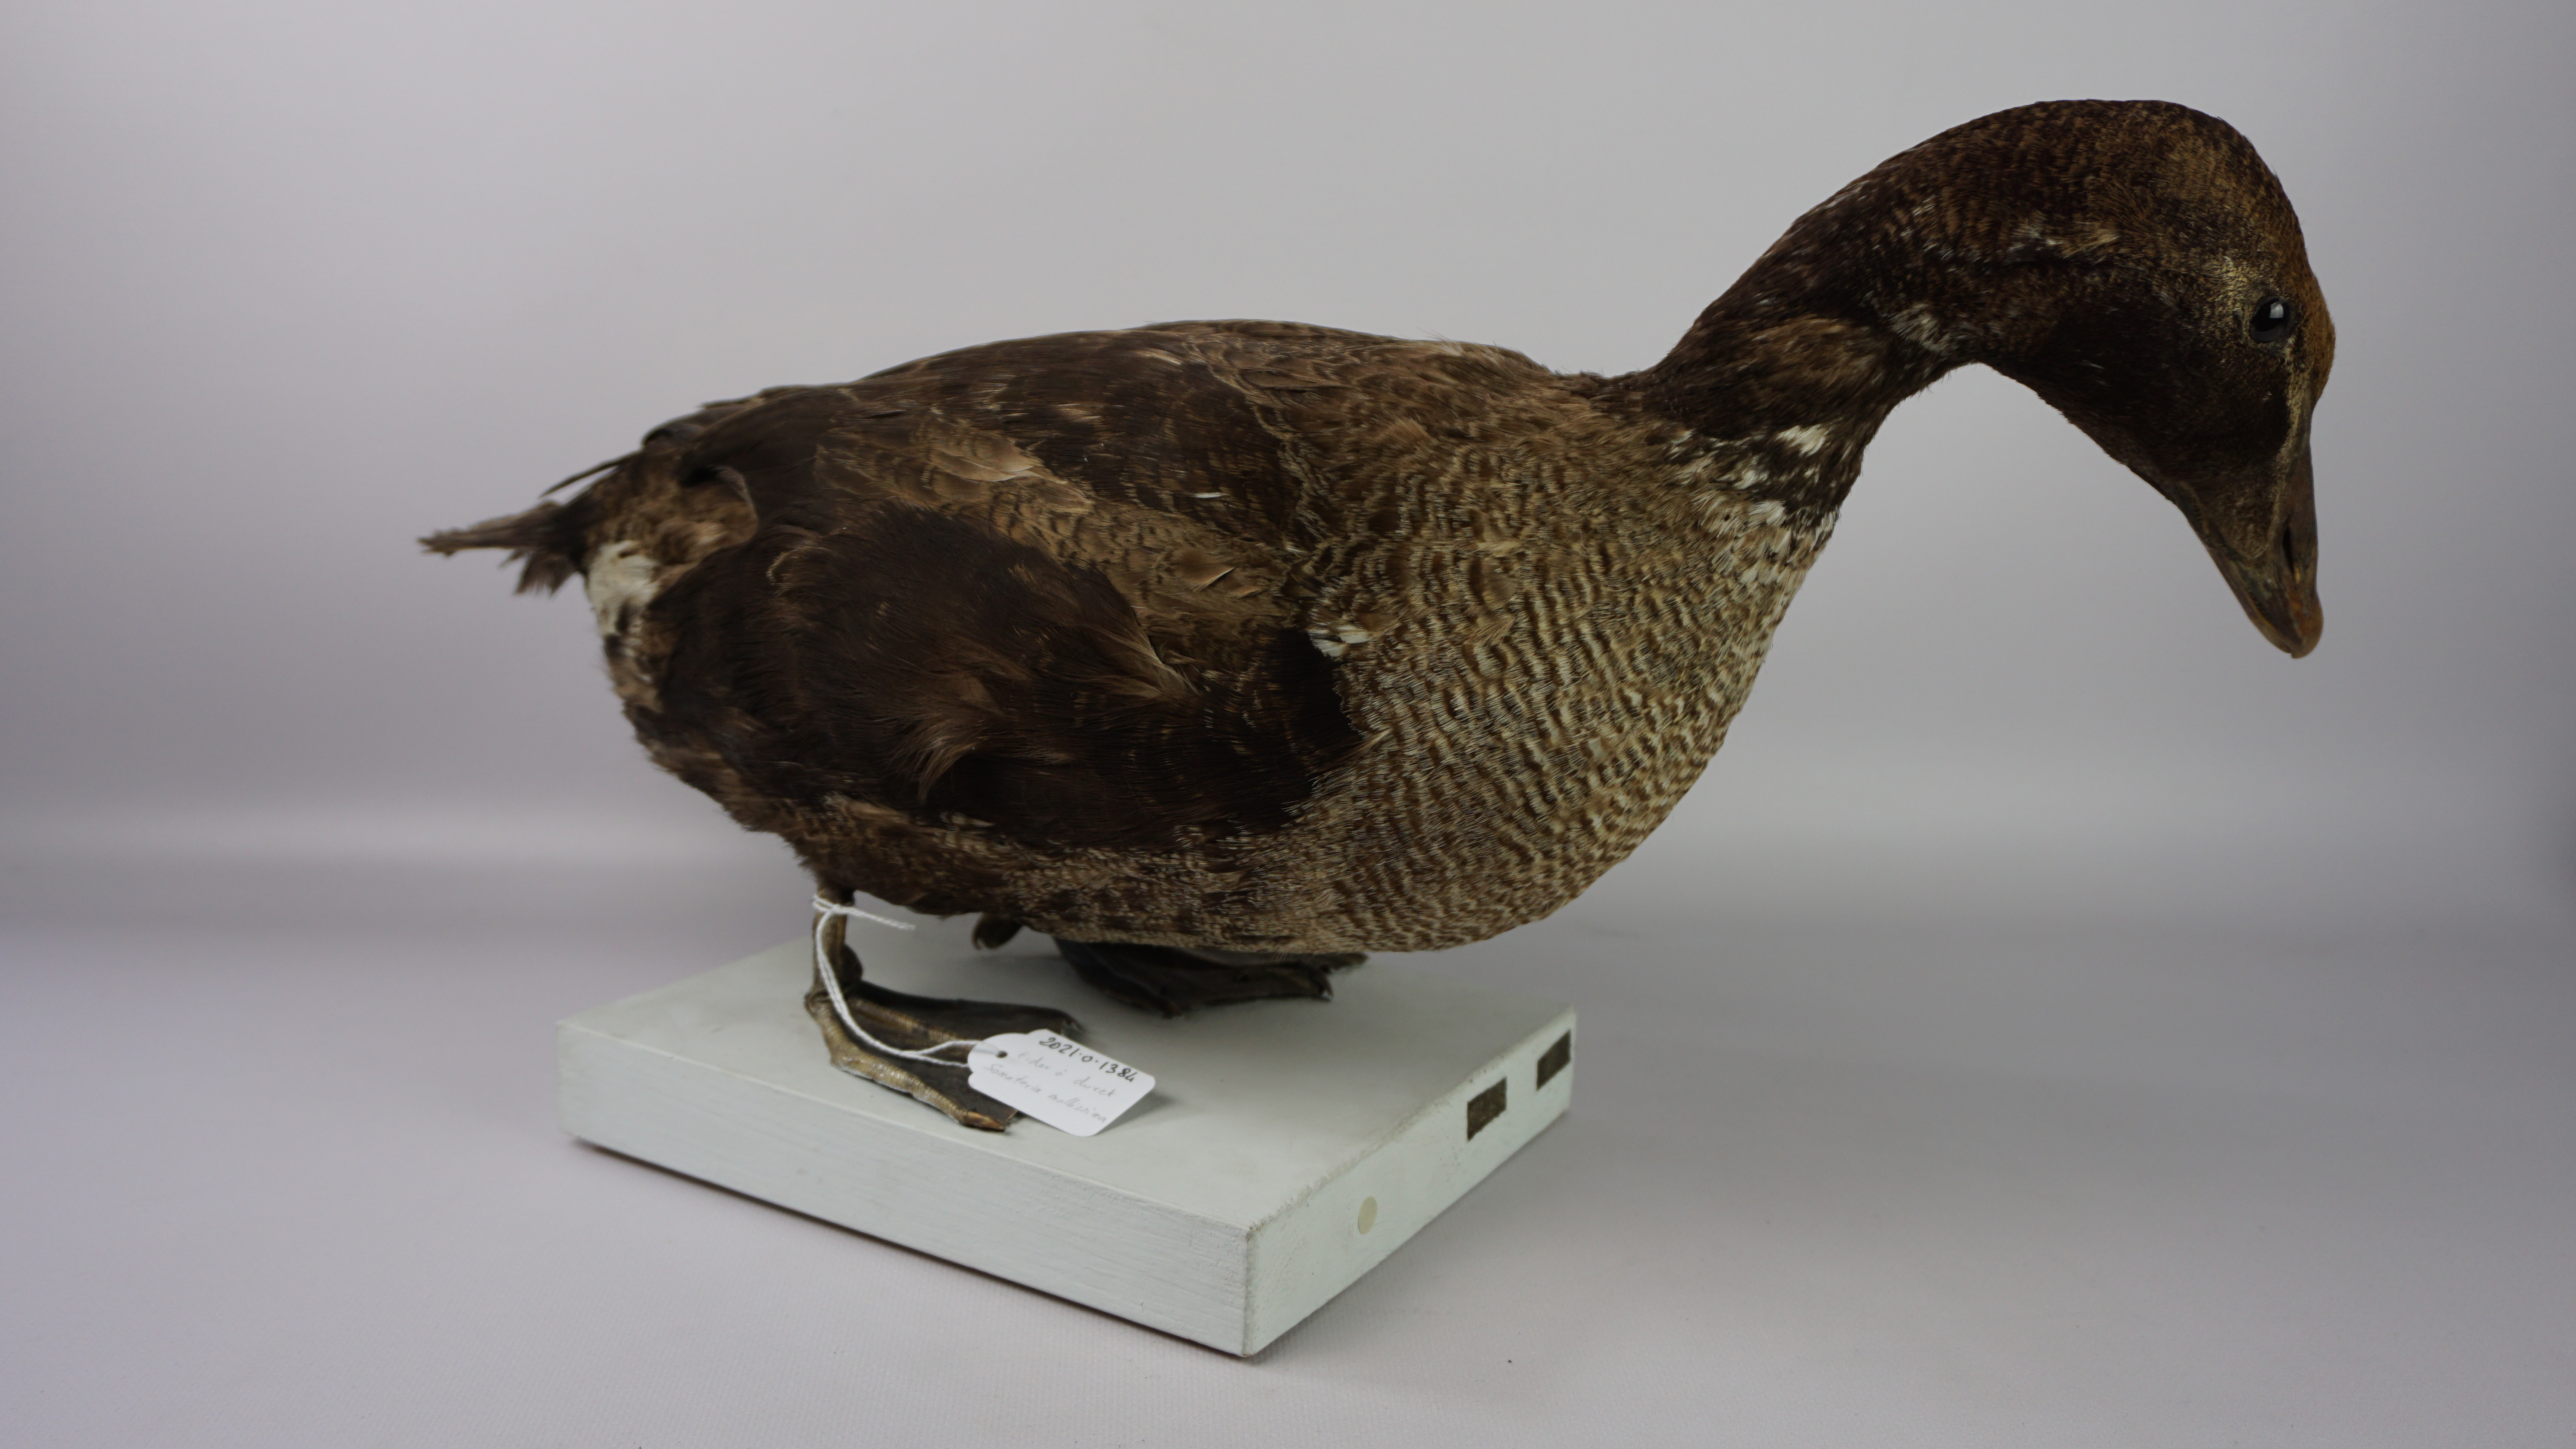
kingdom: Animalia
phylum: Chordata
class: Aves
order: Anseriformes
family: Anatidae
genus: Somateria
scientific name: Somateria mollissima
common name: Common eider
